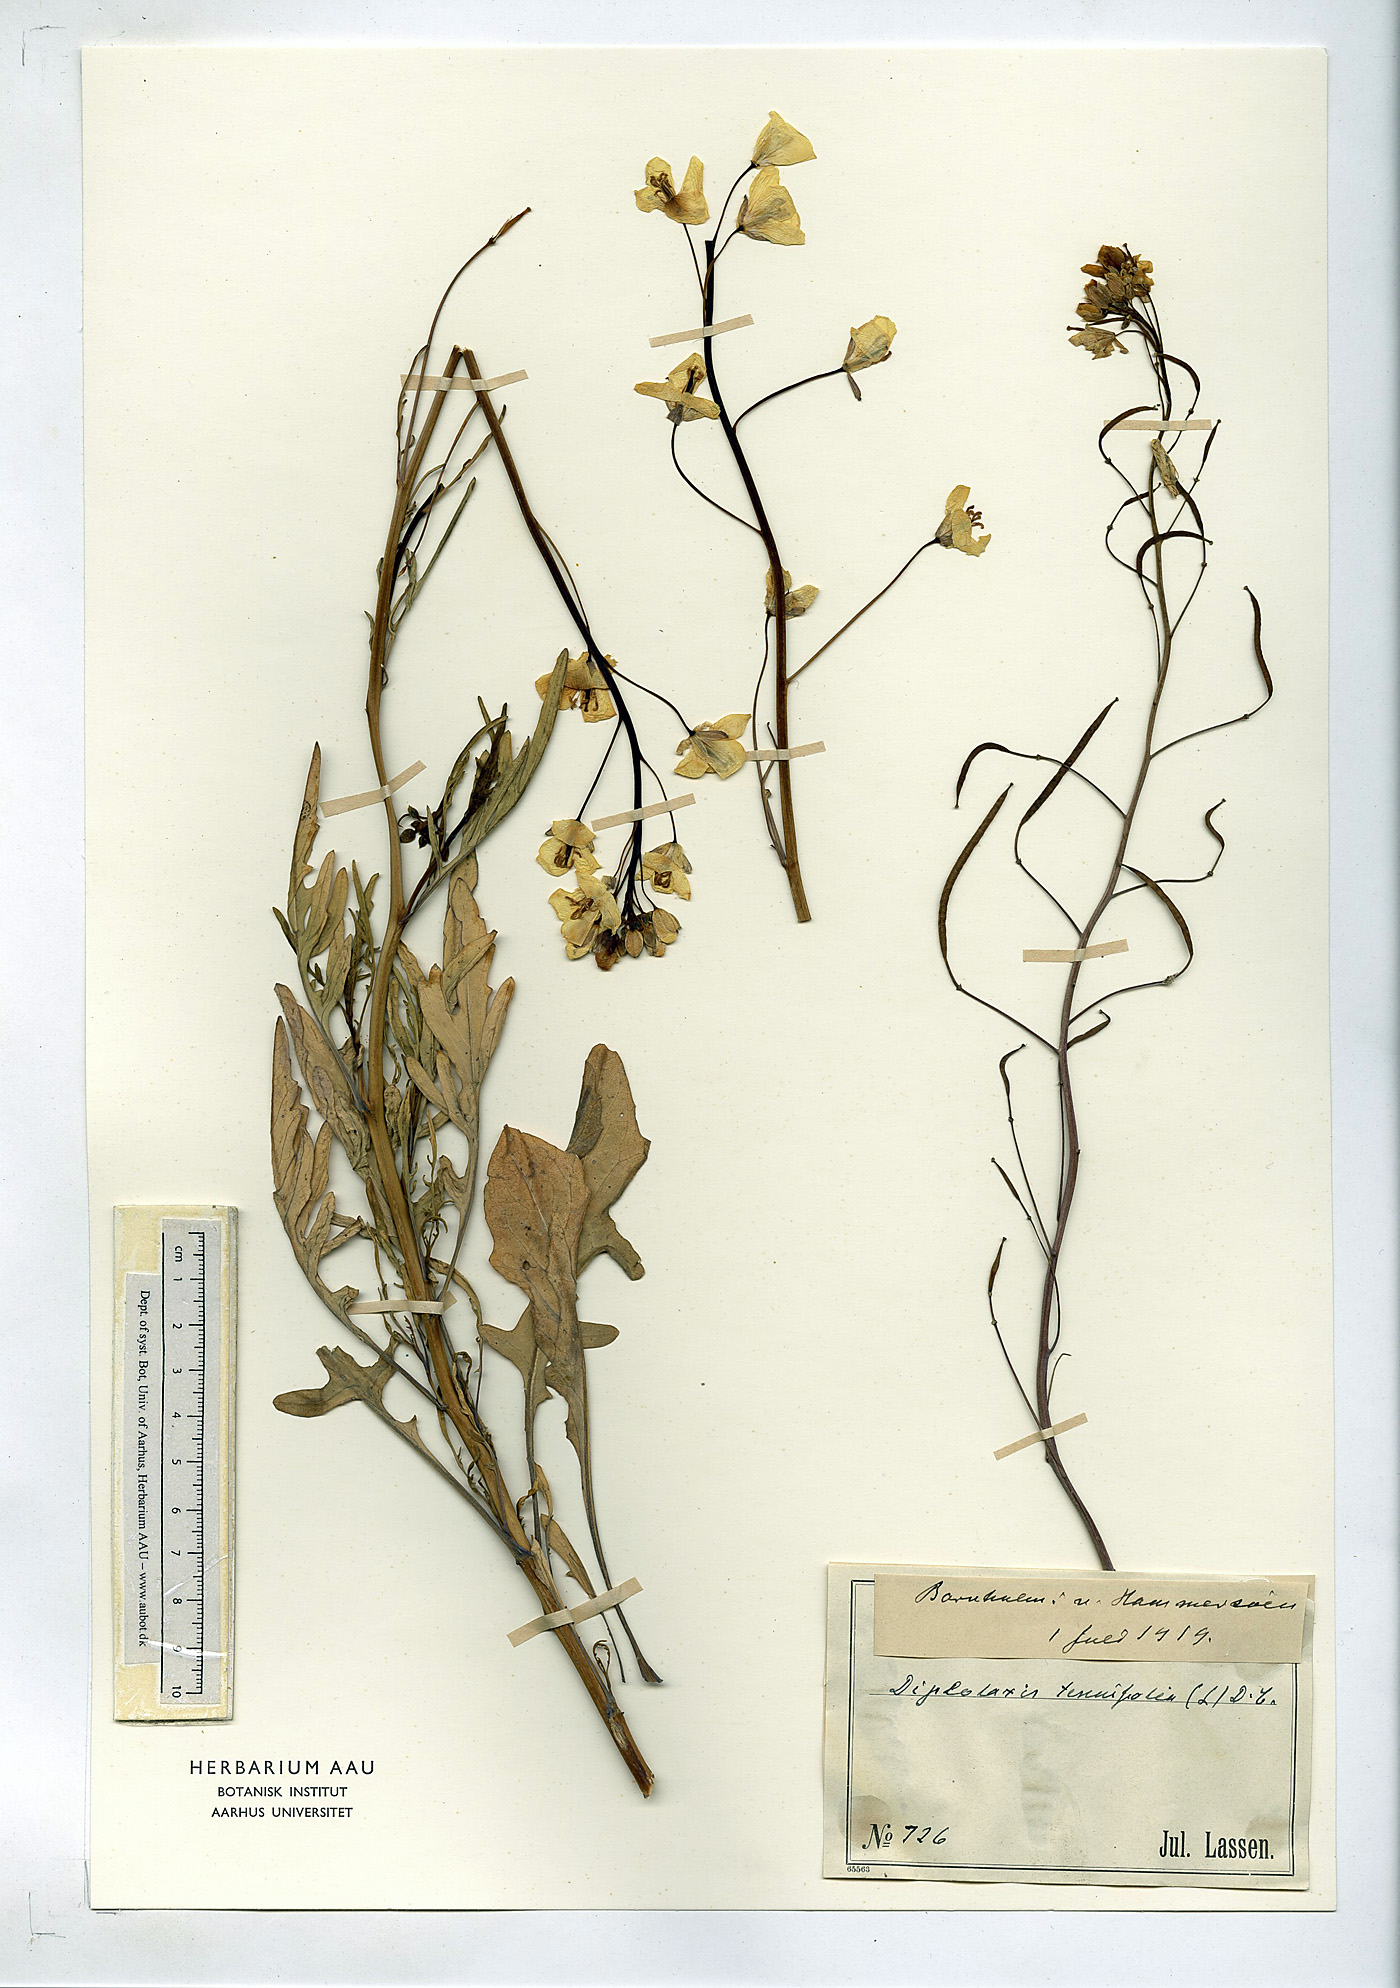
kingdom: Plantae
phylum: Tracheophyta
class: Magnoliopsida
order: Brassicales
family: Brassicaceae
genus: Diplotaxis
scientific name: Diplotaxis tenuifolia
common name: Perennial wall-rocket
